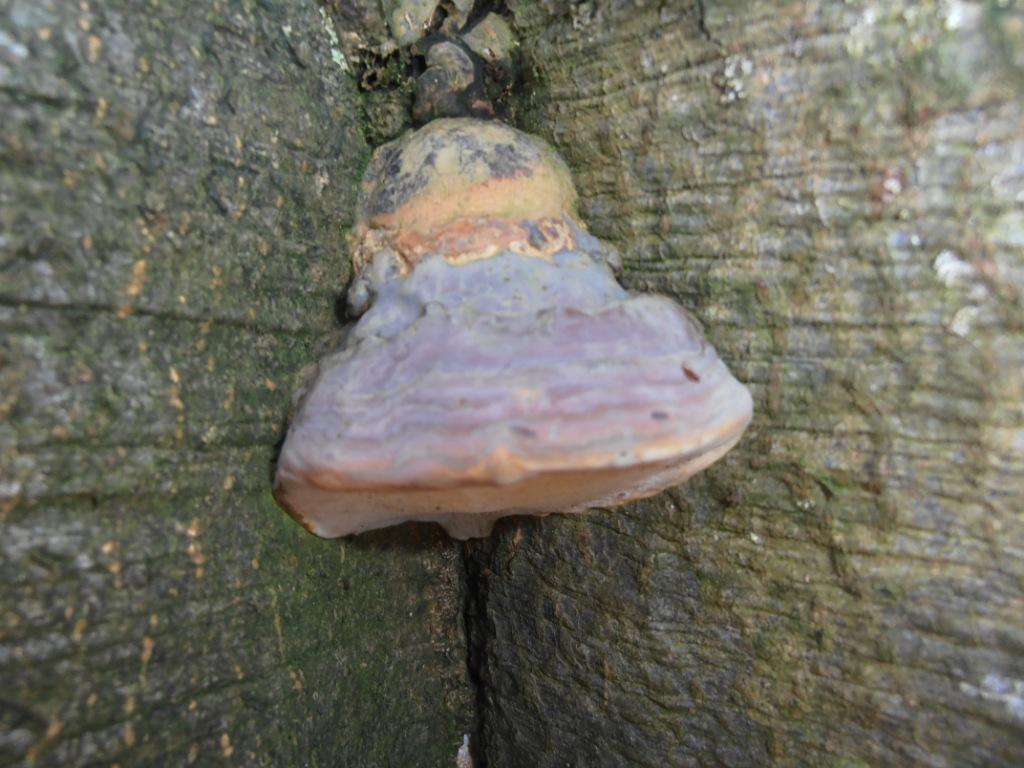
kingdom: Fungi
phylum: Basidiomycota
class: Agaricomycetes
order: Polyporales
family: Polyporaceae
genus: Ganoderma
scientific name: Ganoderma pfeifferi
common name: kobberrød lakporesvamp
